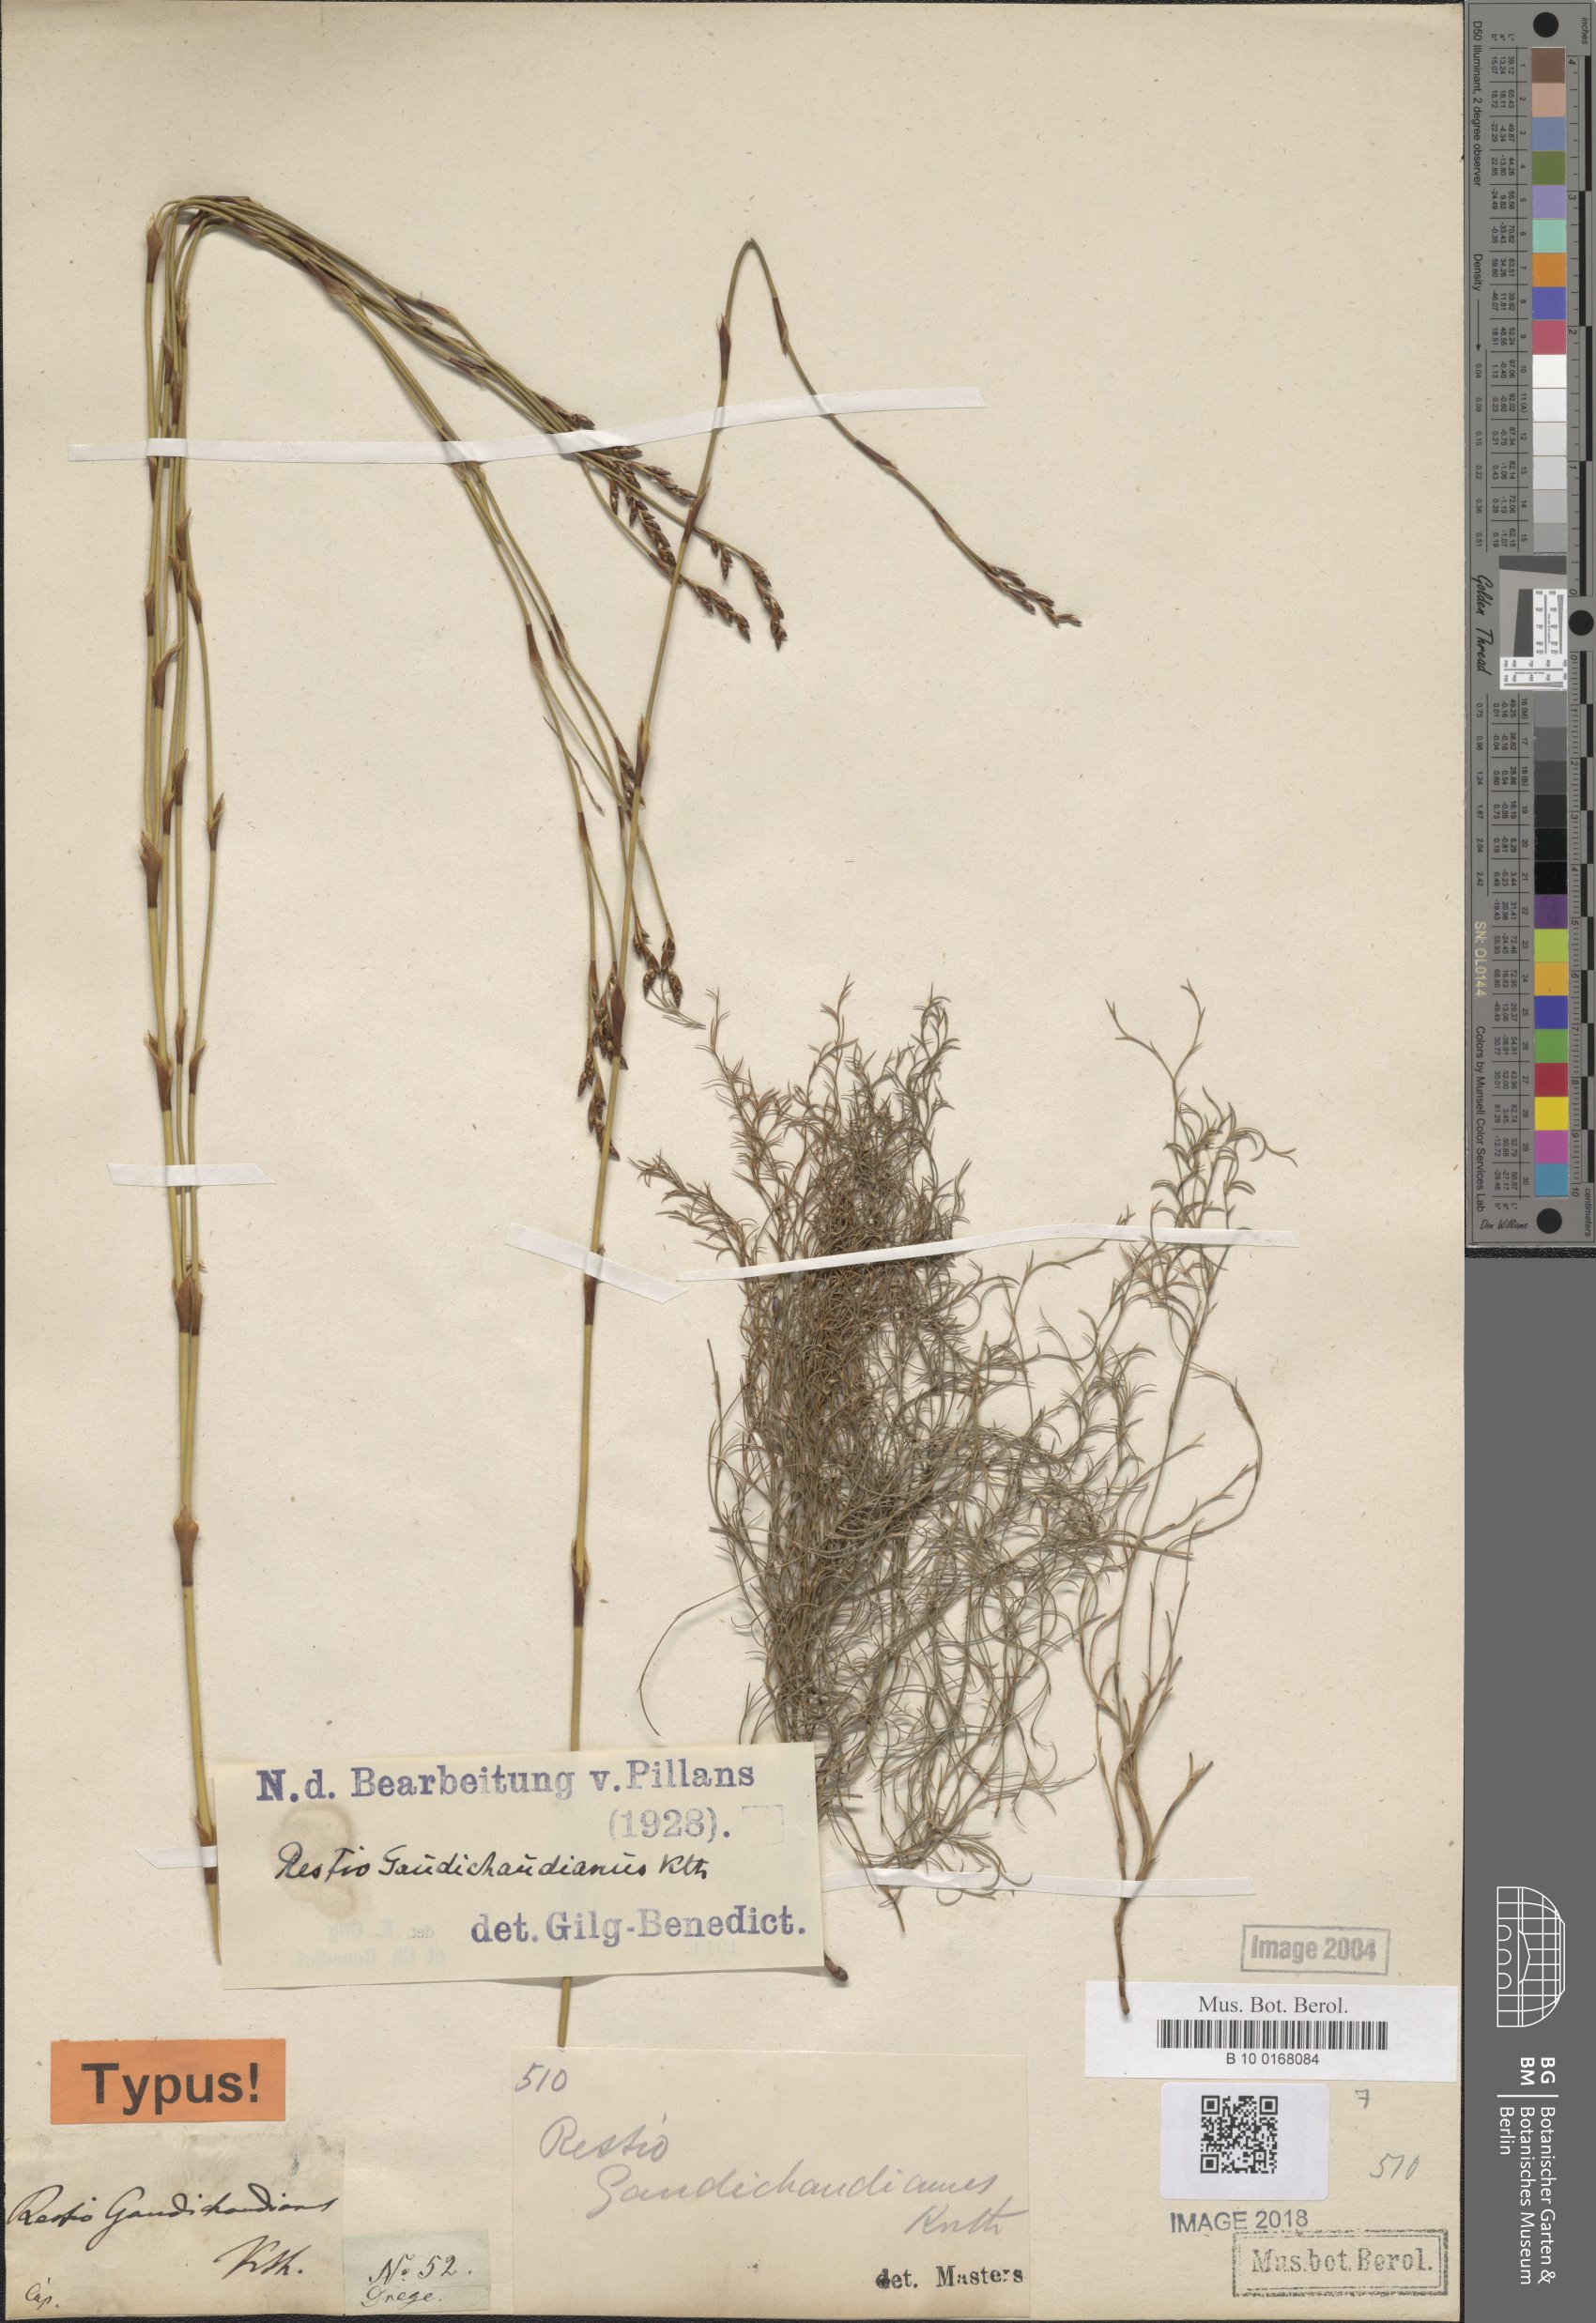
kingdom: Plantae
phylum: Tracheophyta
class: Liliopsida
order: Poales
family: Restionaceae
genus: Restio
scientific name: Restio gaudichaudianus
